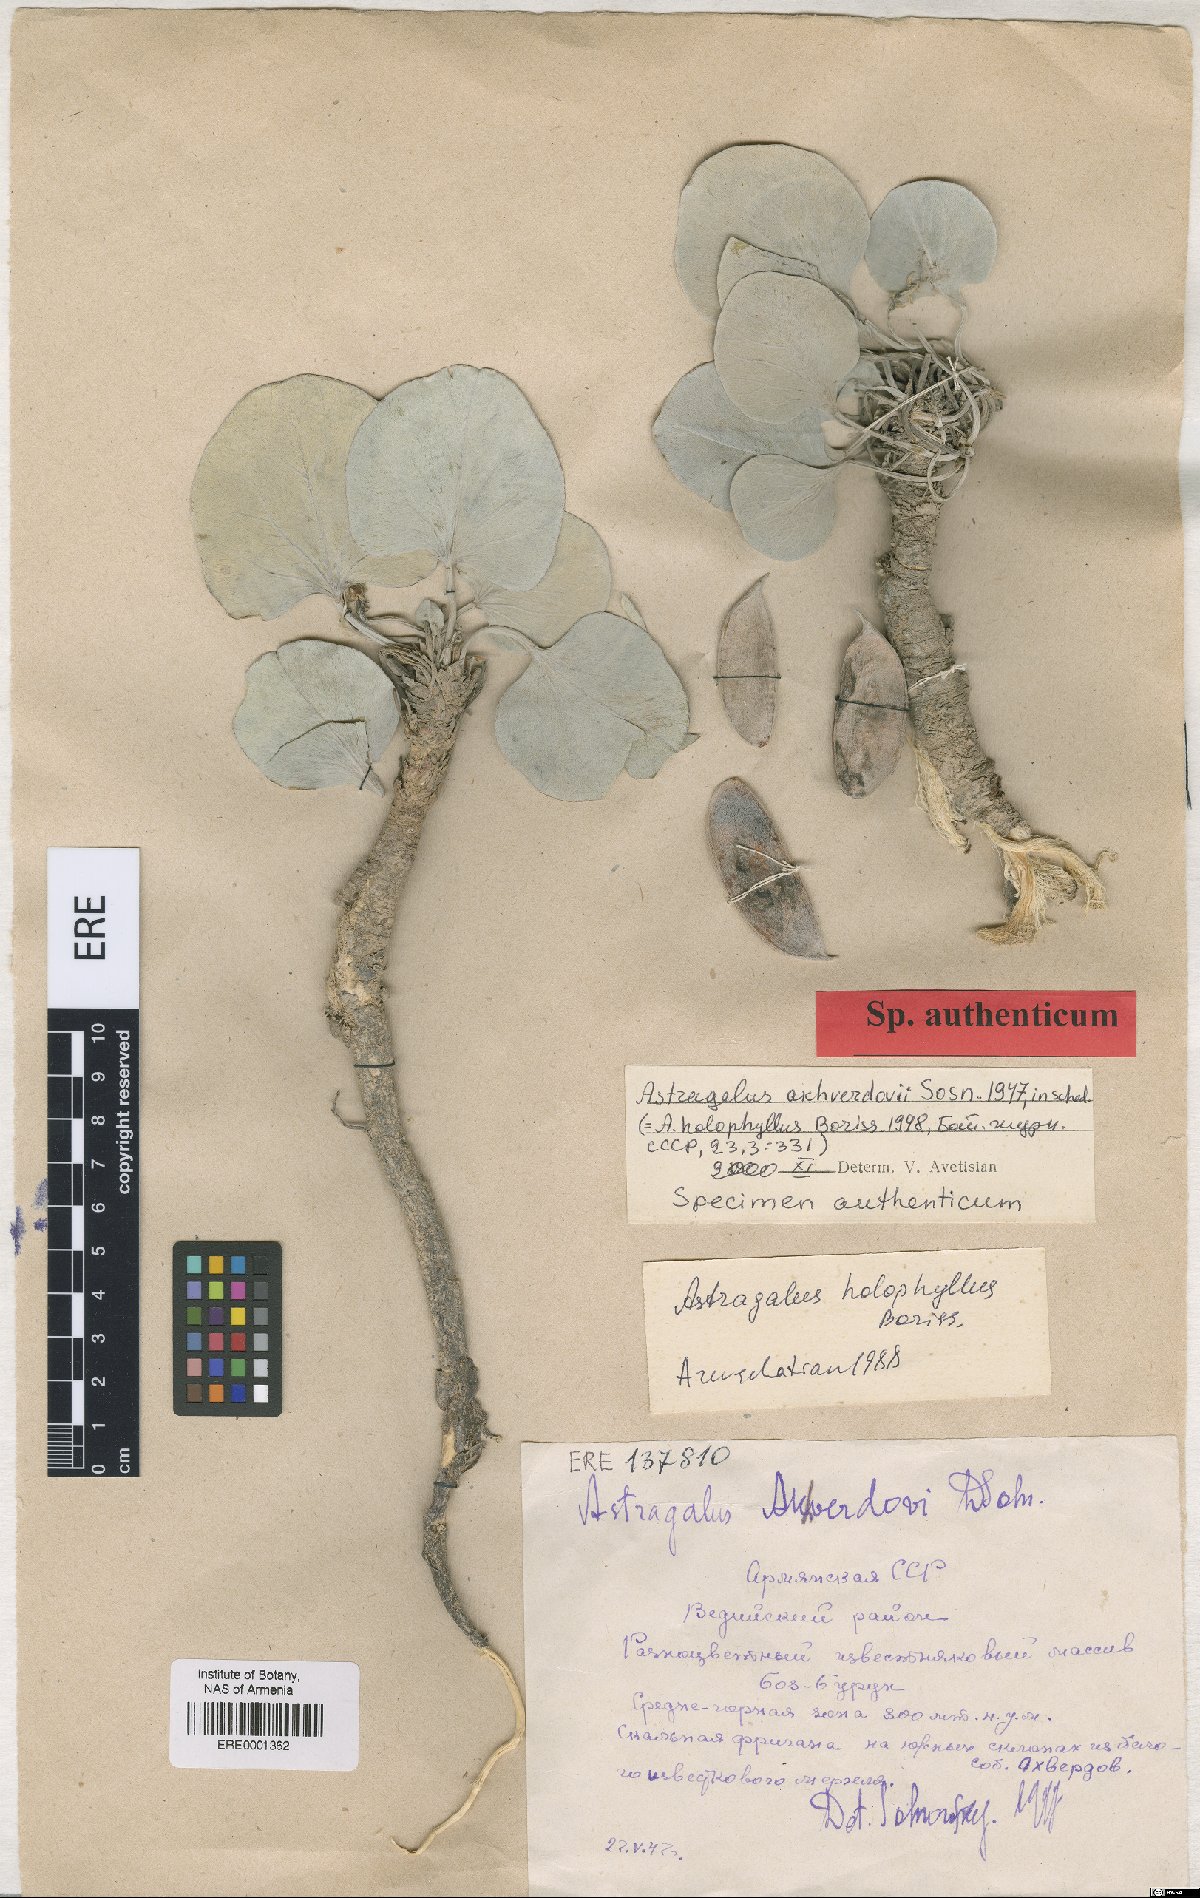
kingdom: Plantae
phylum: Tracheophyta
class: Magnoliopsida
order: Fabales
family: Fabaceae
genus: Astragalus
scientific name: Astragalus
